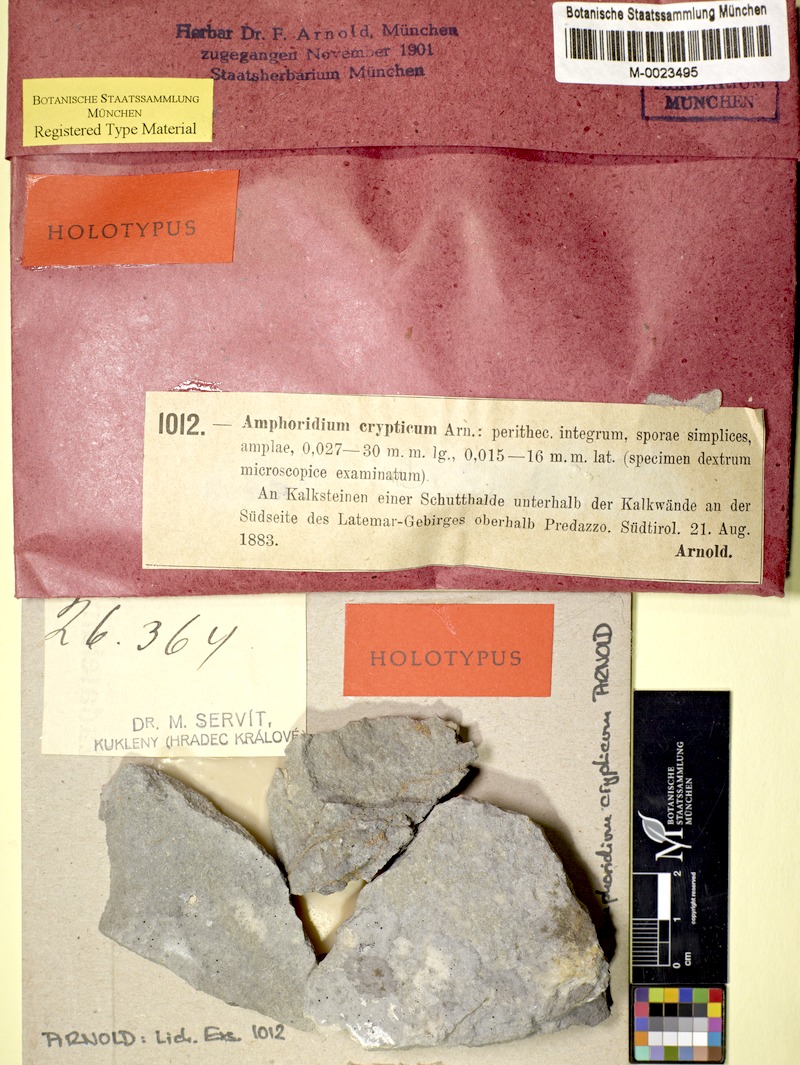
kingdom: Fungi
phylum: Ascomycota
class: Eurotiomycetes
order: Verrucariales
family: Verrucariaceae
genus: Verrucaria
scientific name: Verrucaria cryptica
